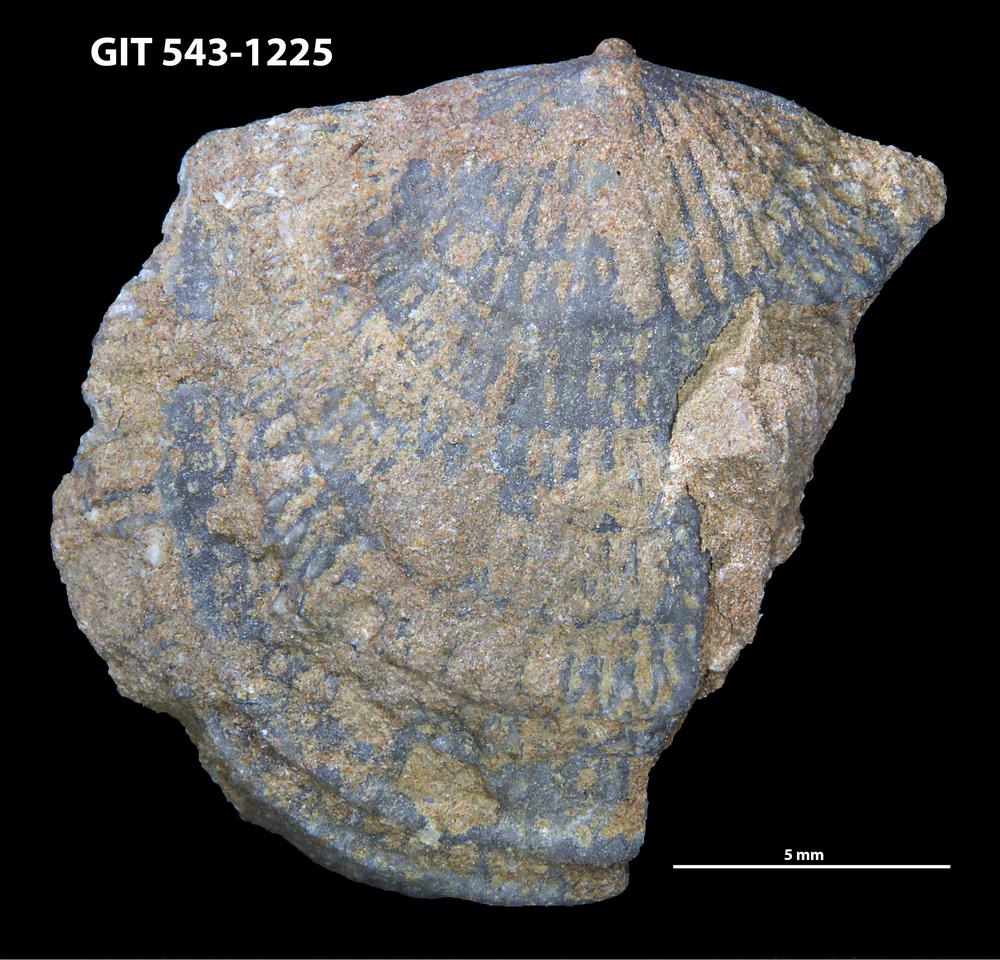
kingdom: Animalia
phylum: Brachiopoda
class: Rhynchonellata
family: Clitambonitidae
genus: Clitambonites
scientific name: Clitambonites
